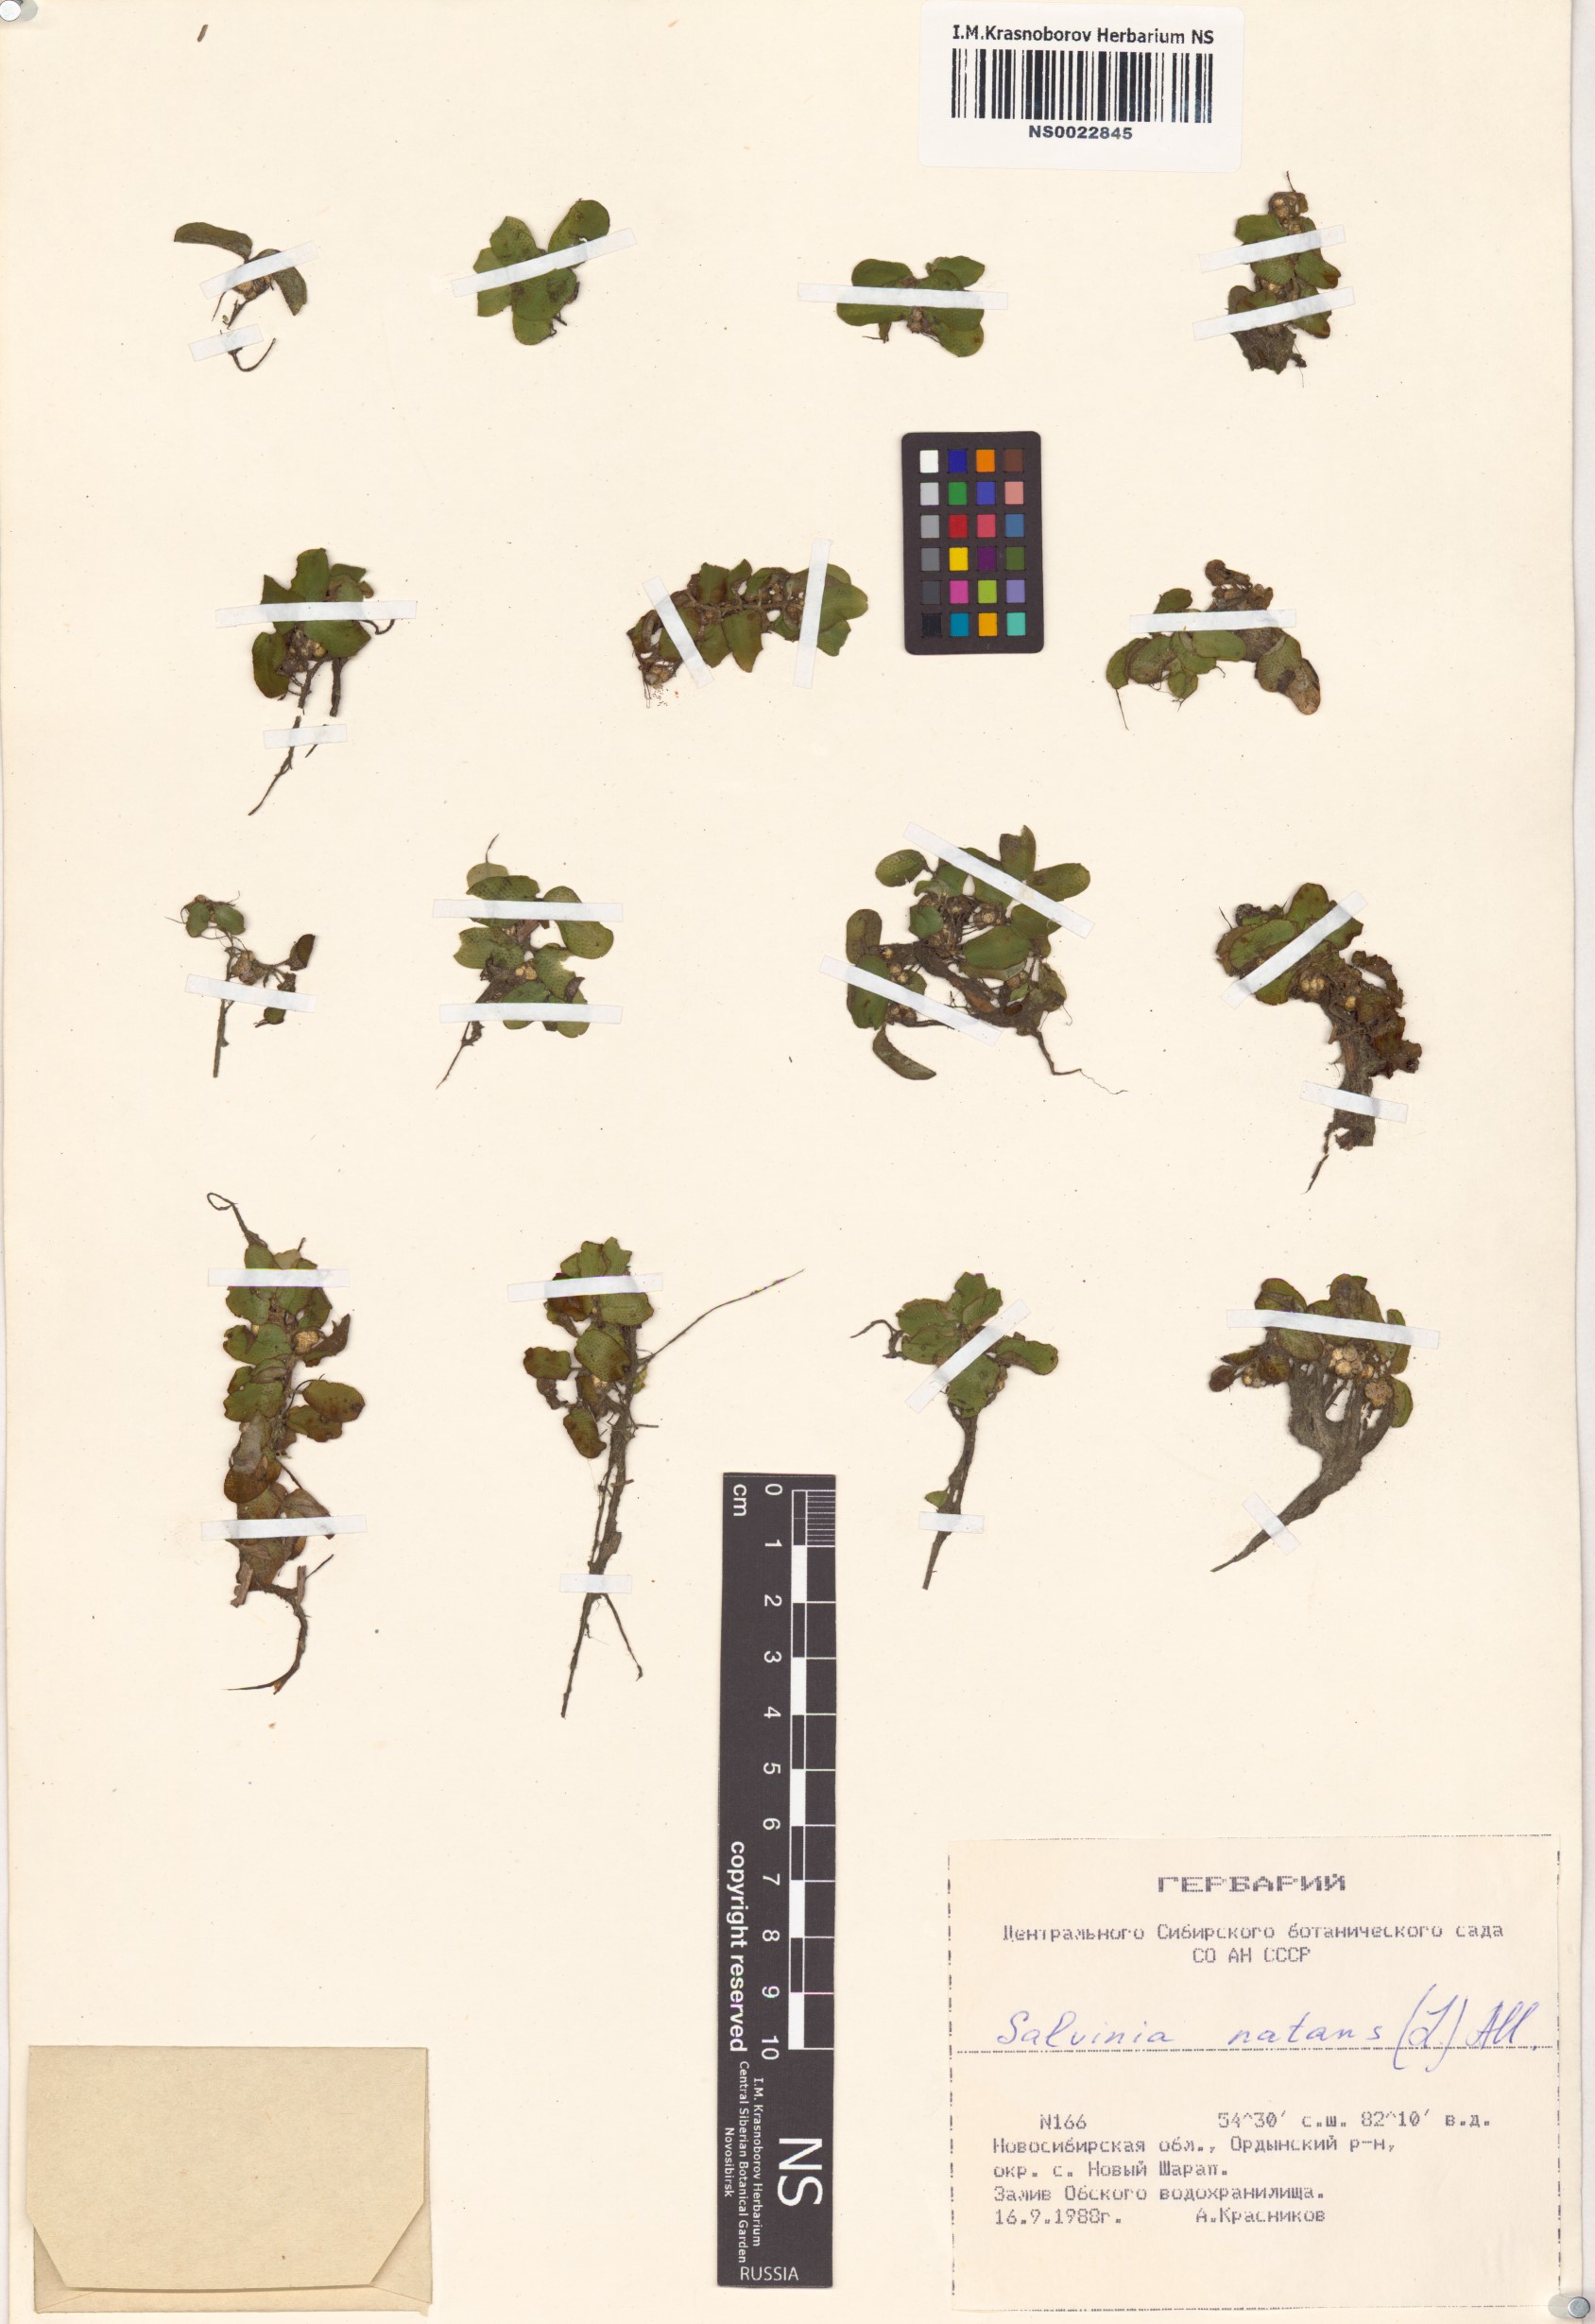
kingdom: Plantae
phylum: Tracheophyta
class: Polypodiopsida
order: Salviniales
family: Salviniaceae
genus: Salvinia
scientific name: Salvinia natans
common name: Floating fern
